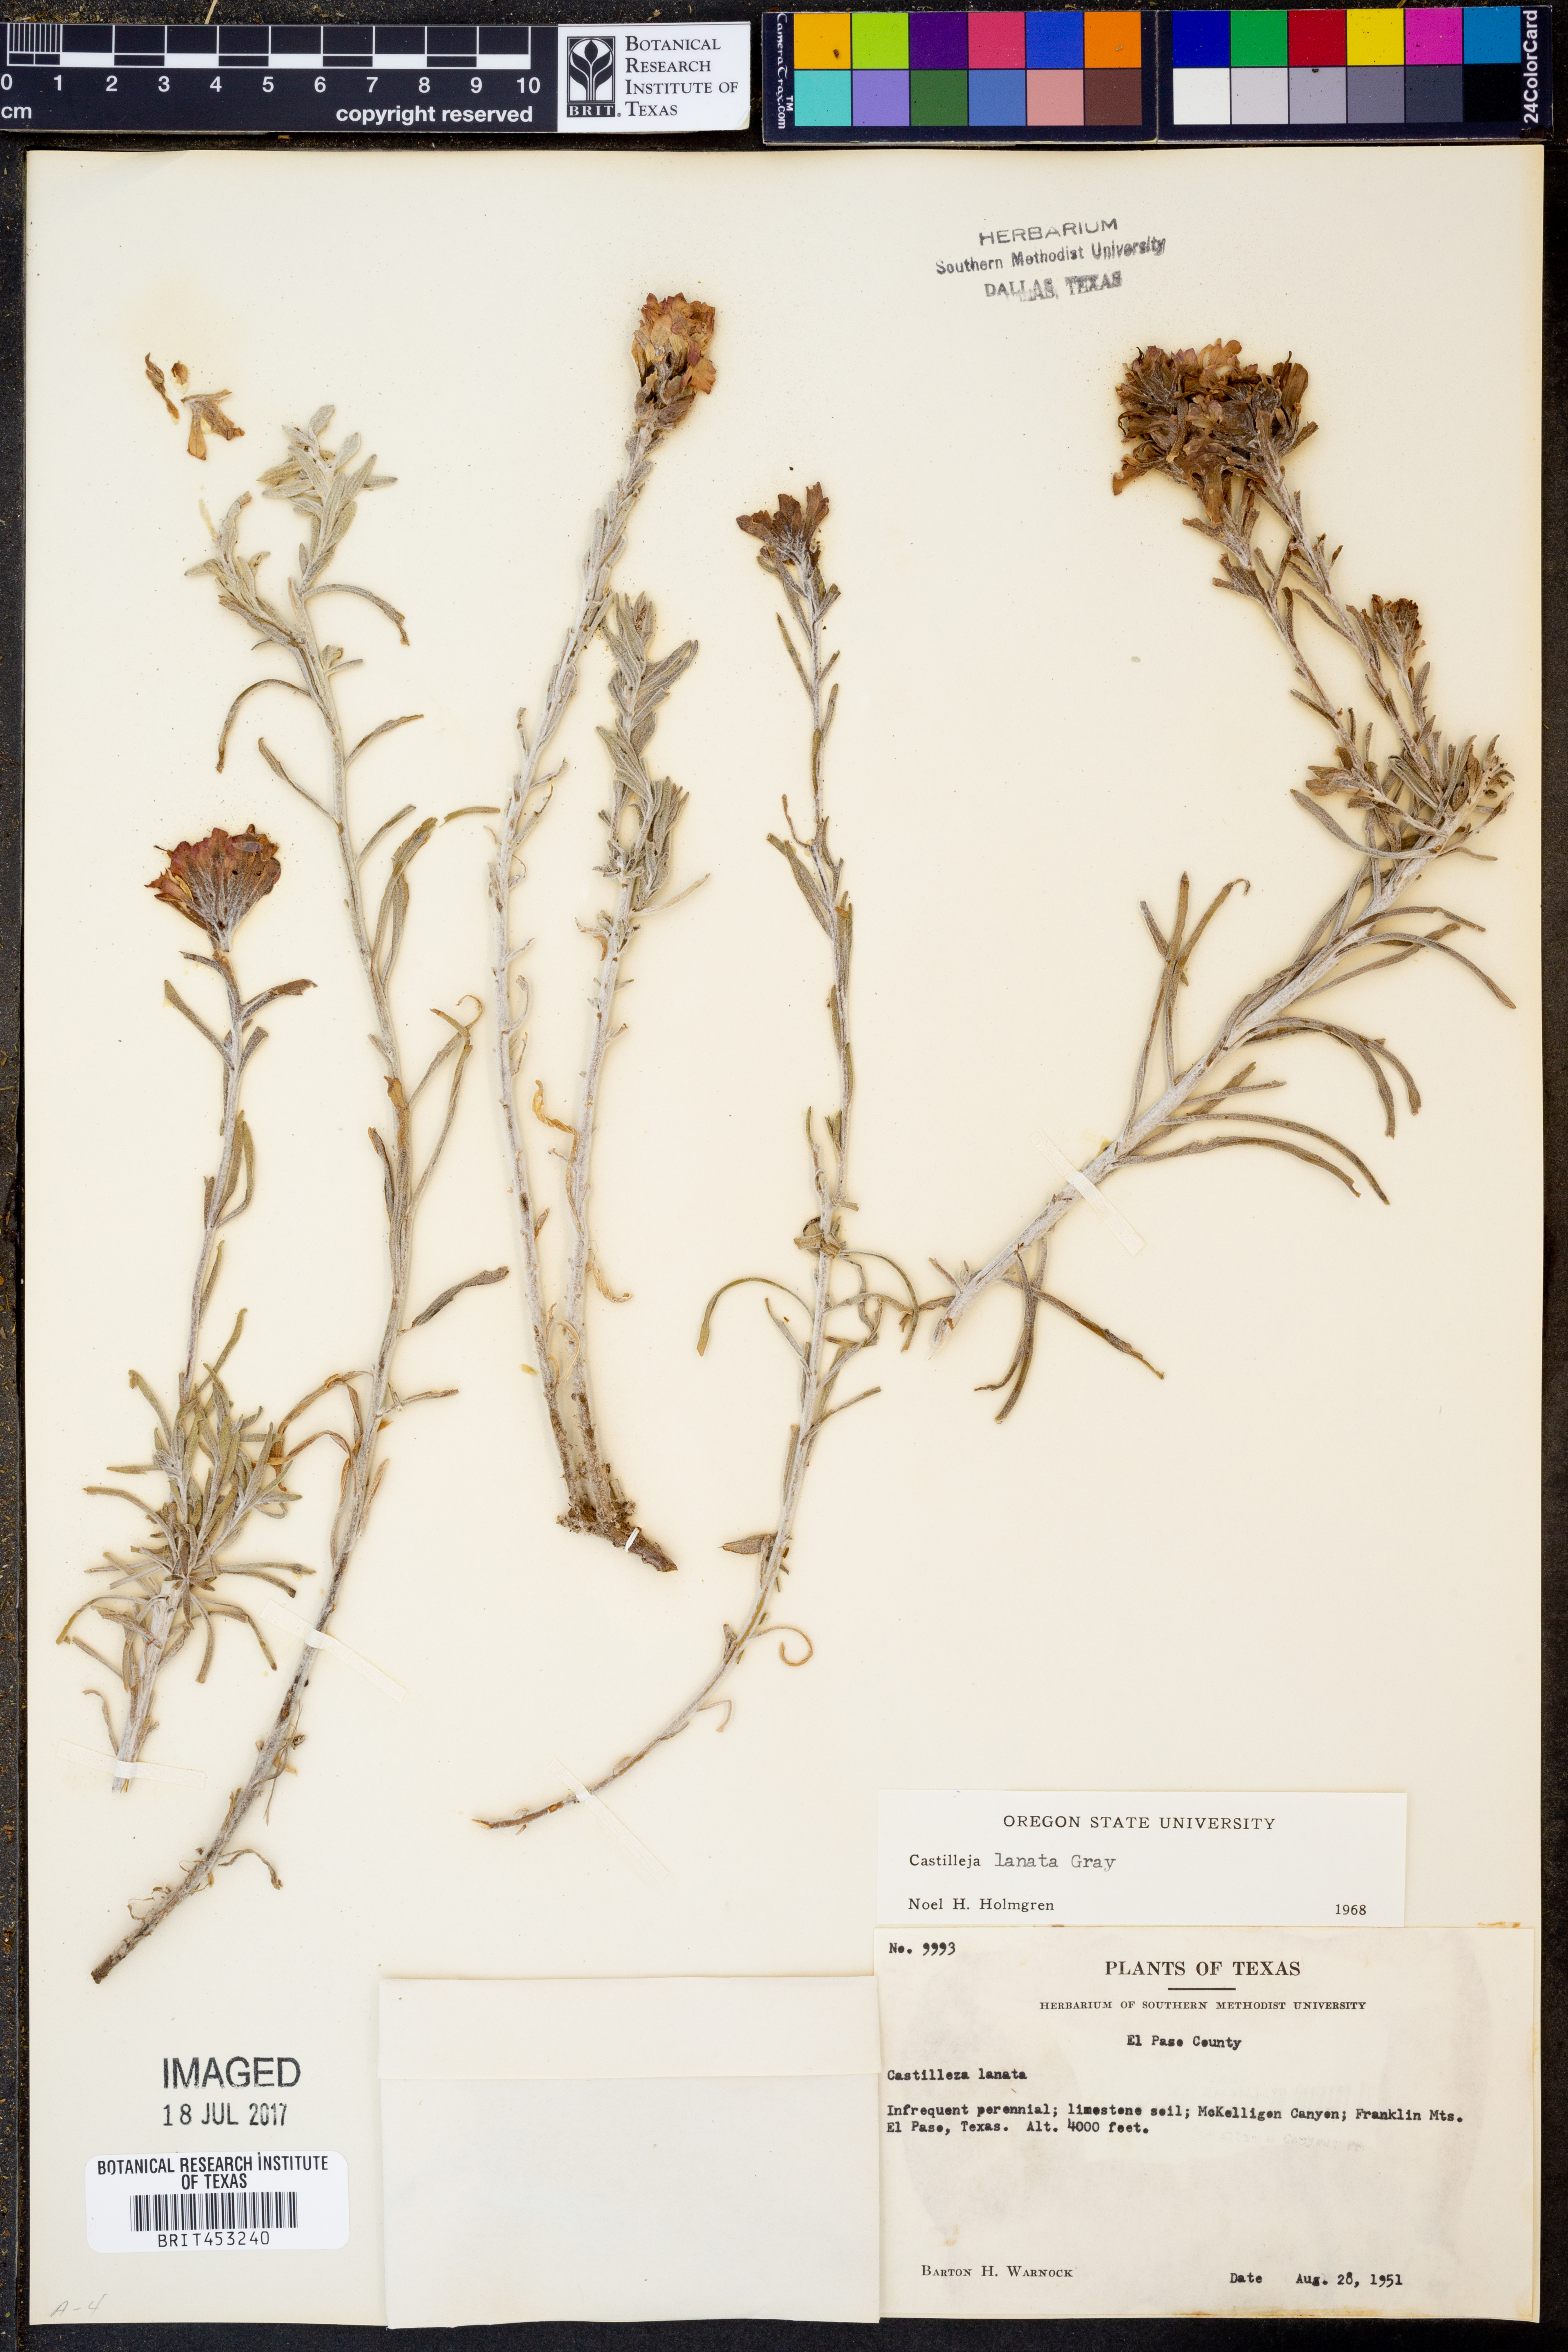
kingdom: Plantae
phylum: Tracheophyta
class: Magnoliopsida
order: Lamiales
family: Orobanchaceae
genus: Castilleja
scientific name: Castilleja lanata
